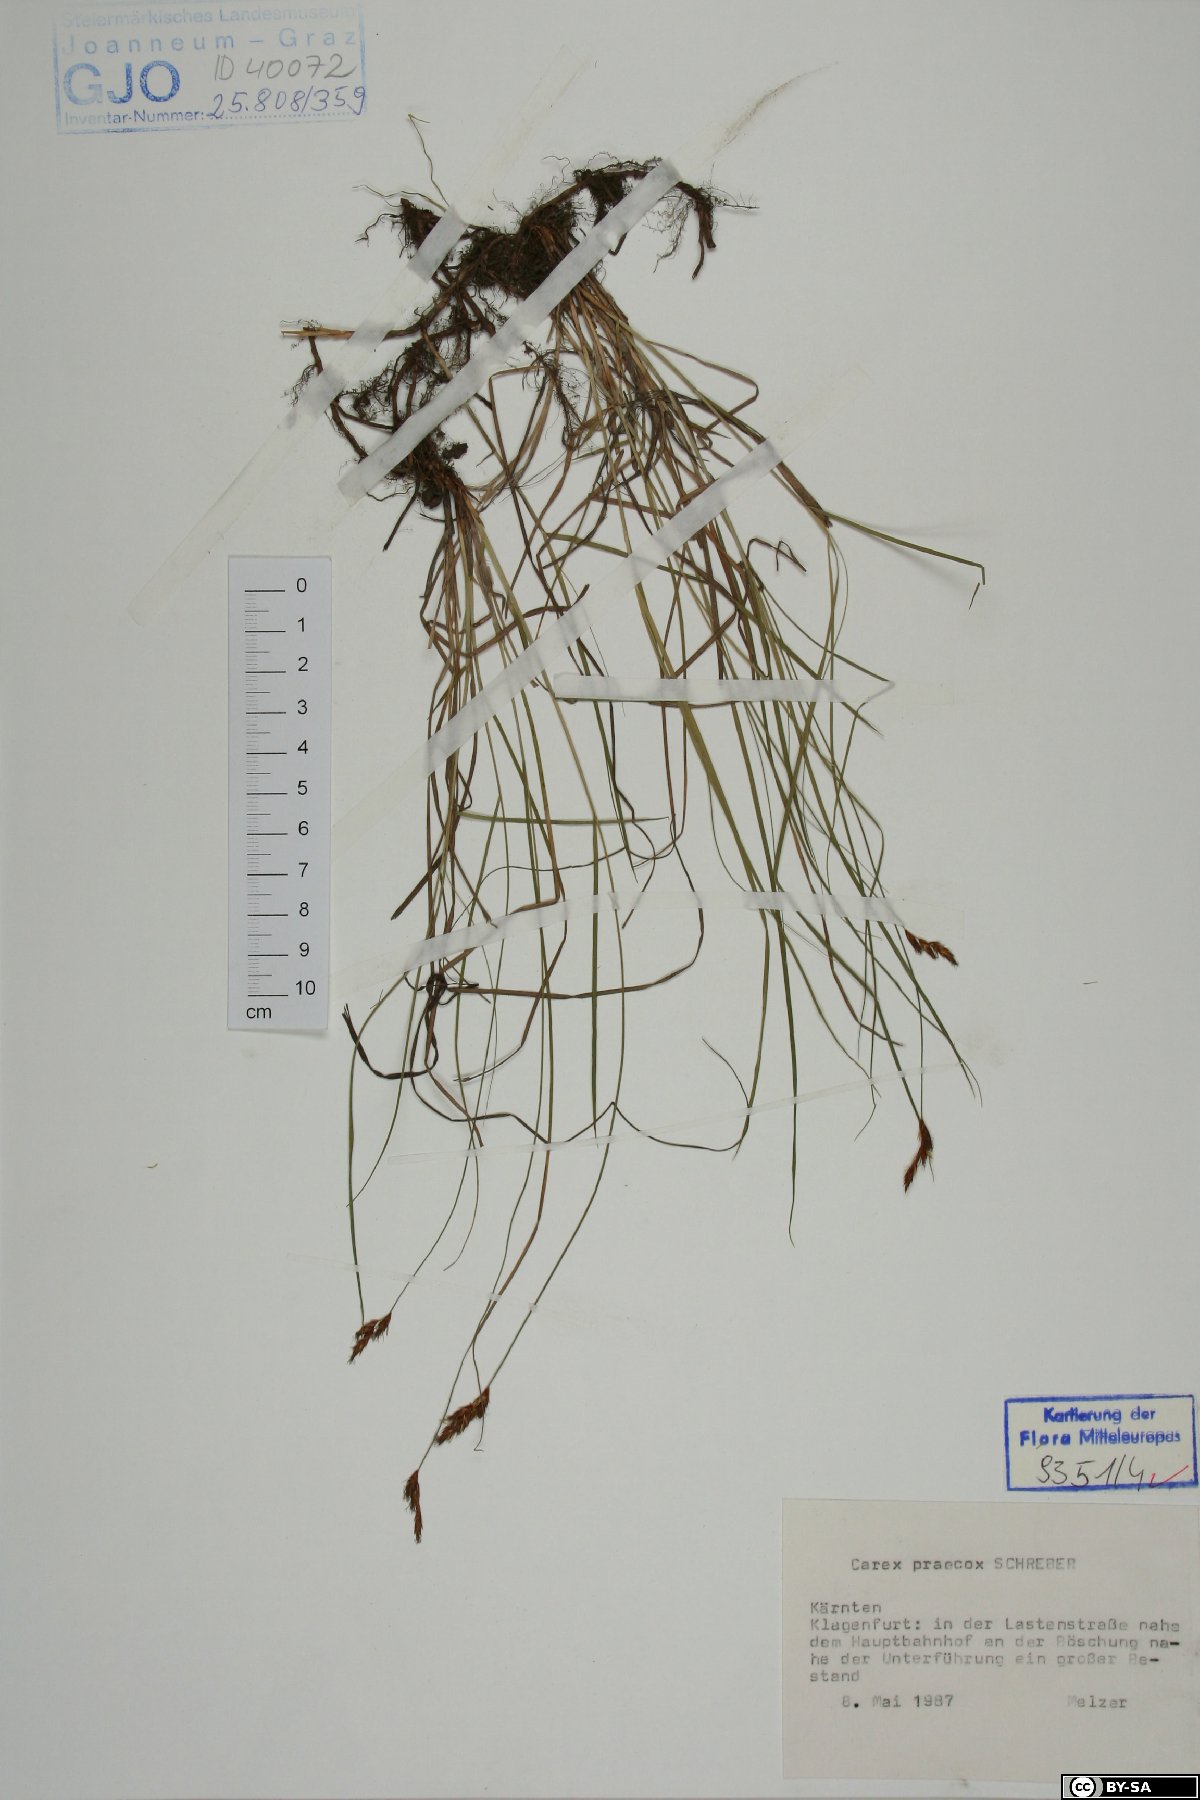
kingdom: Plantae
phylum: Tracheophyta
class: Liliopsida
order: Poales
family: Cyperaceae
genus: Carex
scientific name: Carex praecox
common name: Early sedge
